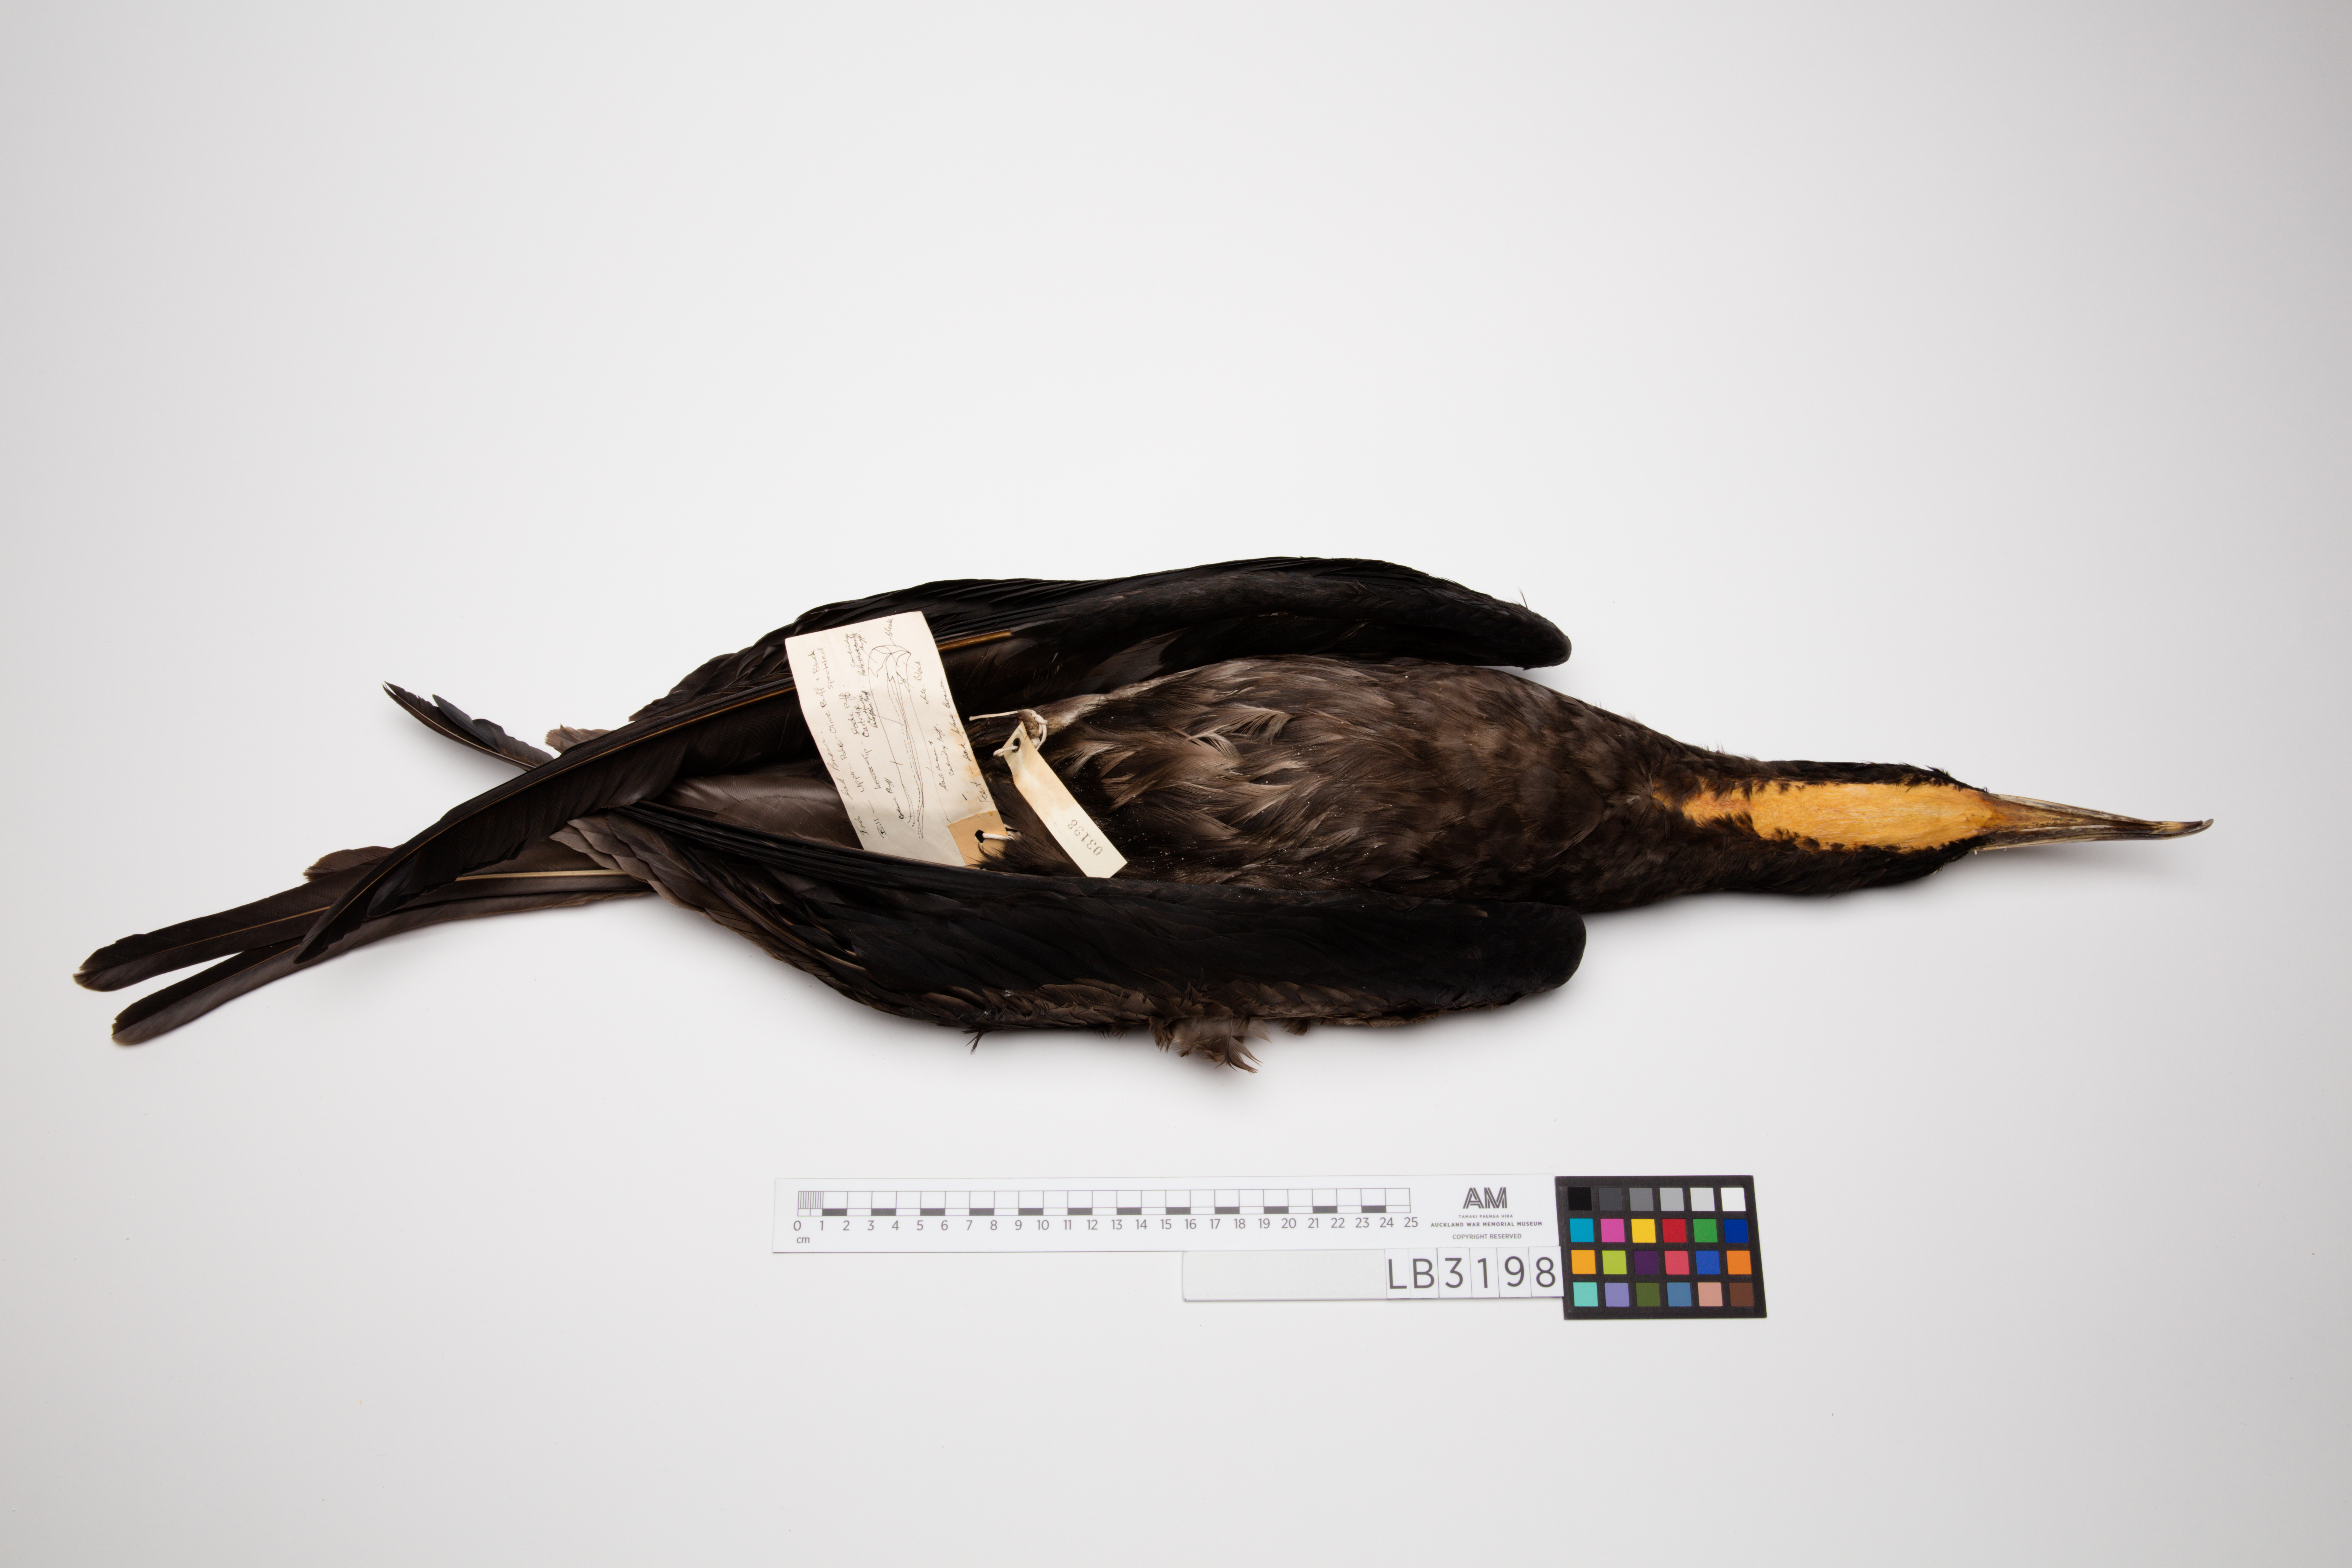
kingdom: Animalia
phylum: Chordata
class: Aves
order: Suliformes
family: Fregatidae
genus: Fregata
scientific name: Fregata minor
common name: Great frigatebird
